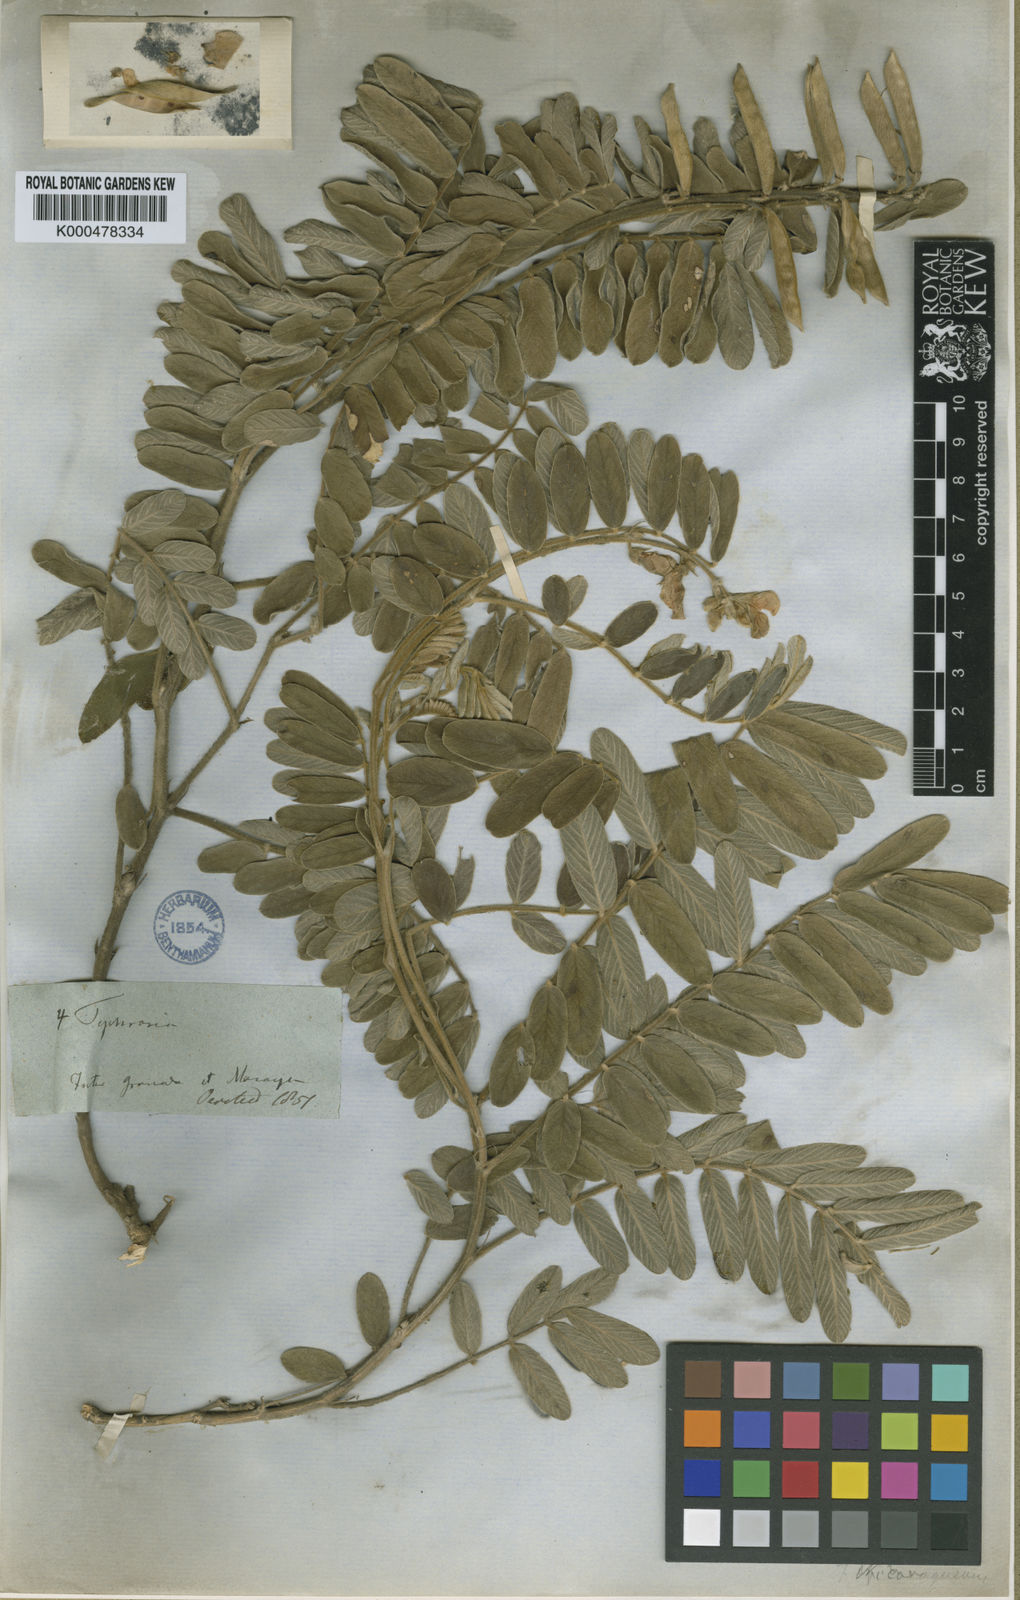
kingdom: Plantae
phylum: Tracheophyta
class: Magnoliopsida
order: Fabales
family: Fabaceae
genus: Tephrosia
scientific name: Tephrosia nicaraguensis
